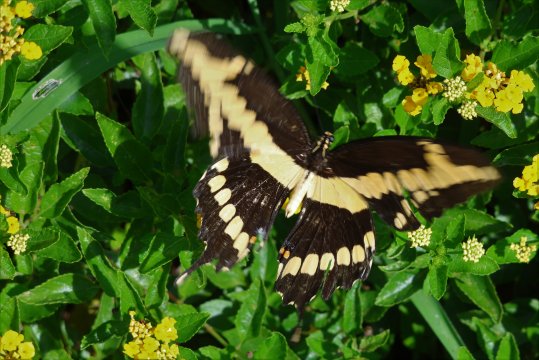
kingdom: Animalia
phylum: Arthropoda
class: Insecta
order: Lepidoptera
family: Papilionidae
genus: Papilio
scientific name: Papilio cresphontes
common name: Eastern Giant Swallowtail
